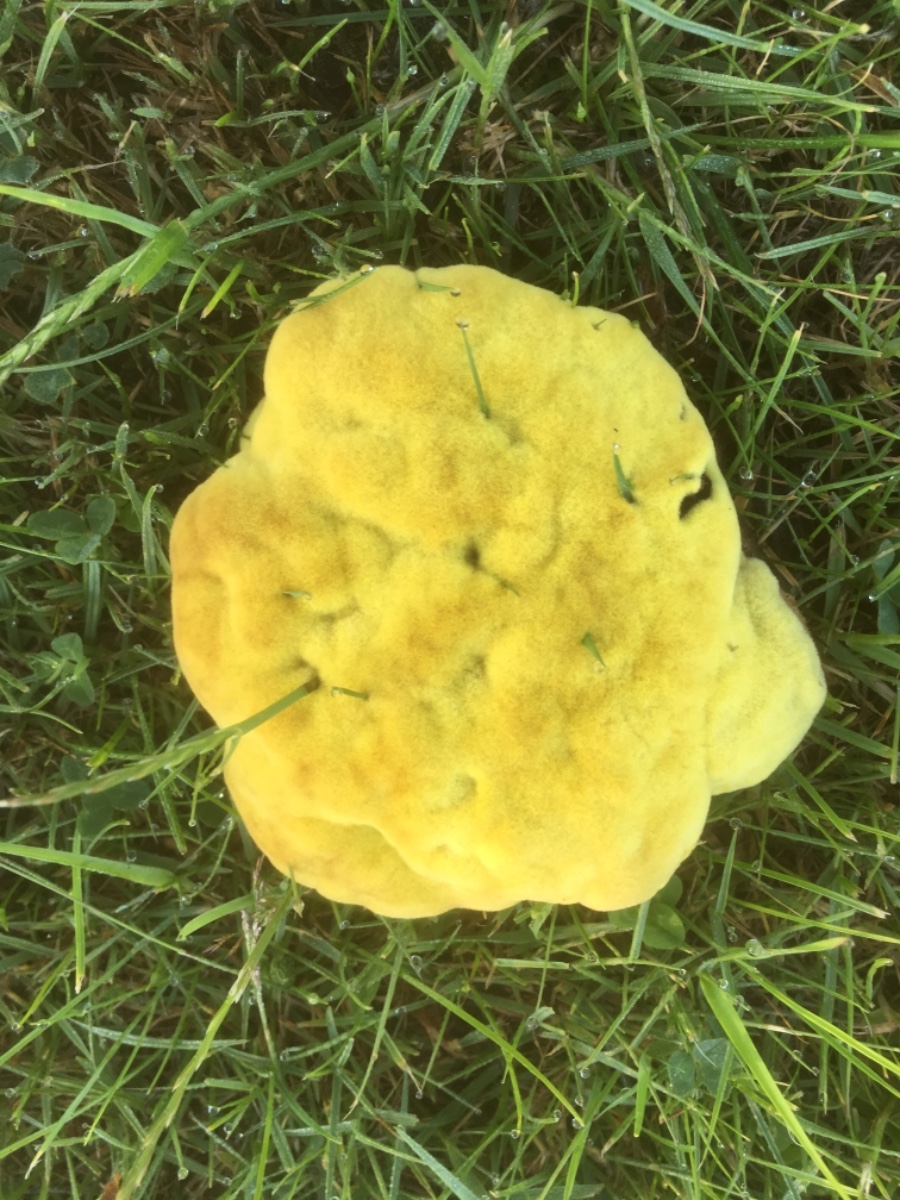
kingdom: Fungi
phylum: Basidiomycota
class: Agaricomycetes
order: Polyporales
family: Laetiporaceae
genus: Phaeolus
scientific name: Phaeolus schweinitzii
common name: brunporesvamp
